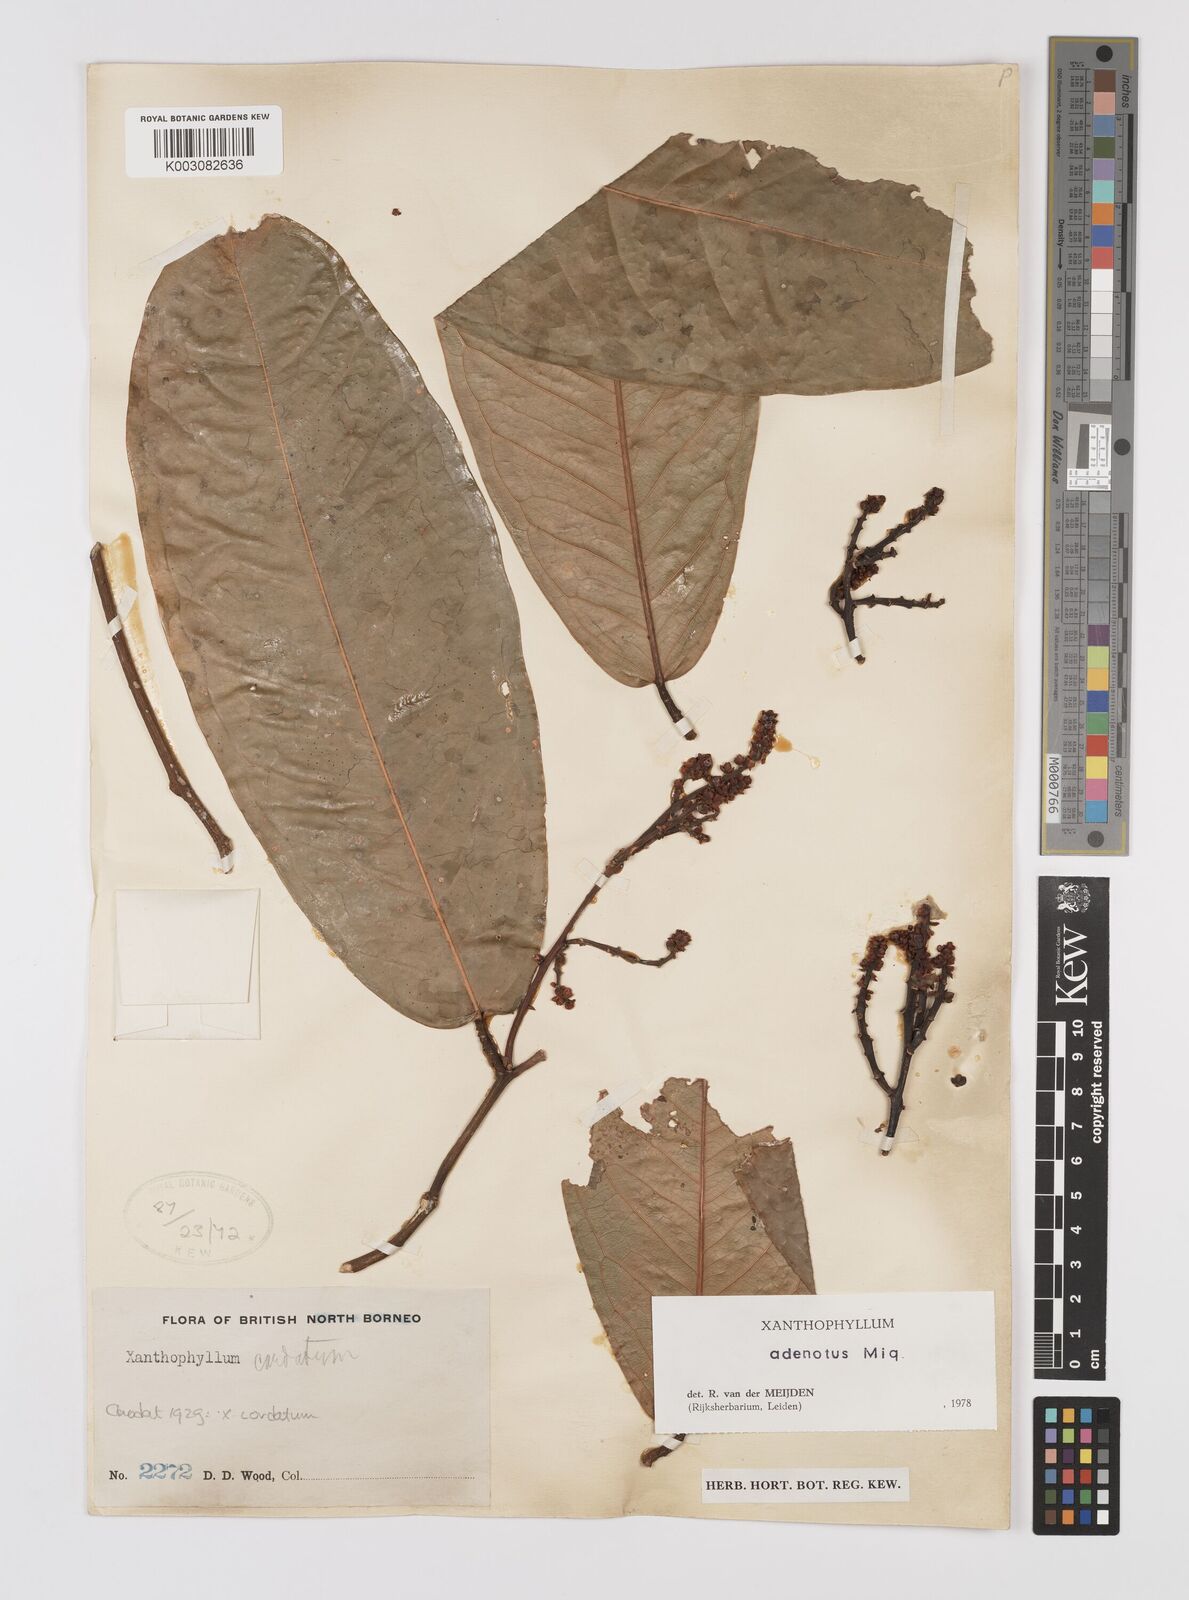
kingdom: Plantae
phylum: Tracheophyta
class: Magnoliopsida
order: Fabales
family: Polygalaceae
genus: Xanthophyllum
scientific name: Xanthophyllum adenotus
